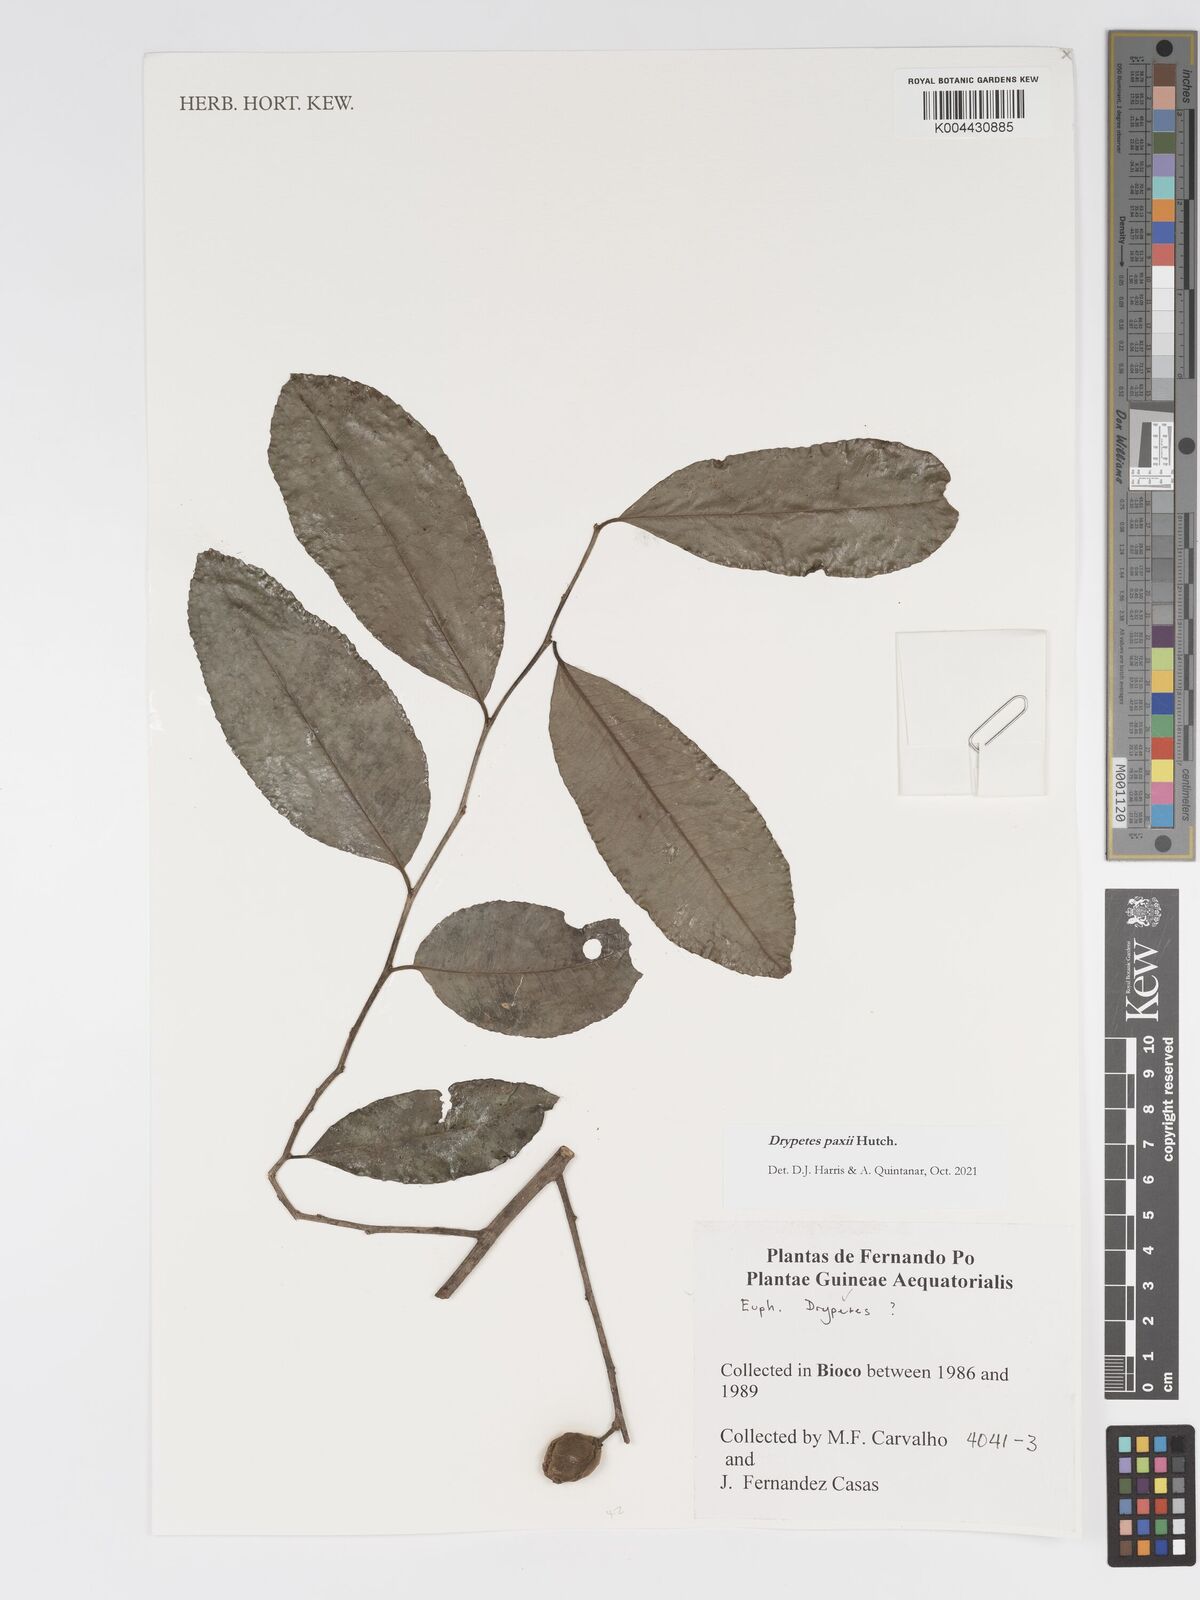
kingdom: Plantae
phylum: Tracheophyta
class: Magnoliopsida
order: Malpighiales
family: Putranjivaceae
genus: Drypetes
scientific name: Drypetes paxii
